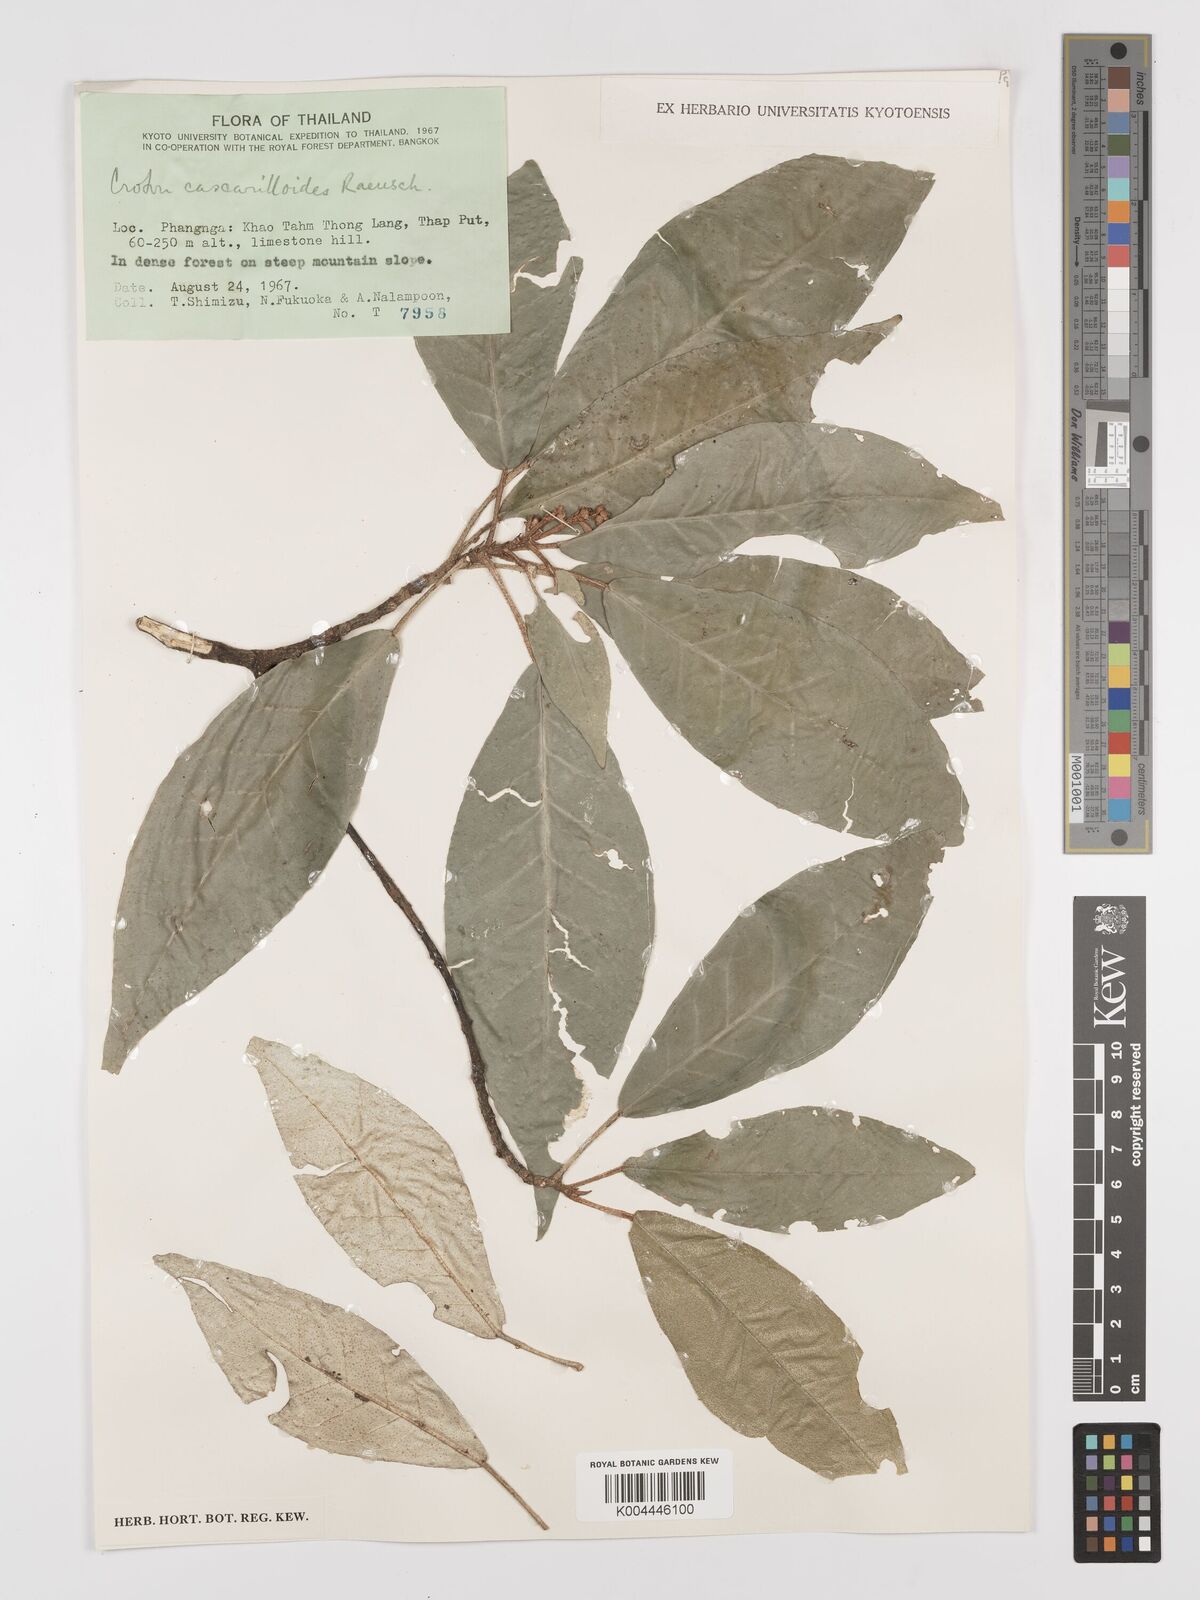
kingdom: Plantae
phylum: Tracheophyta
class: Magnoliopsida
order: Malpighiales
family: Euphorbiaceae
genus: Croton
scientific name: Croton cascarilloides
